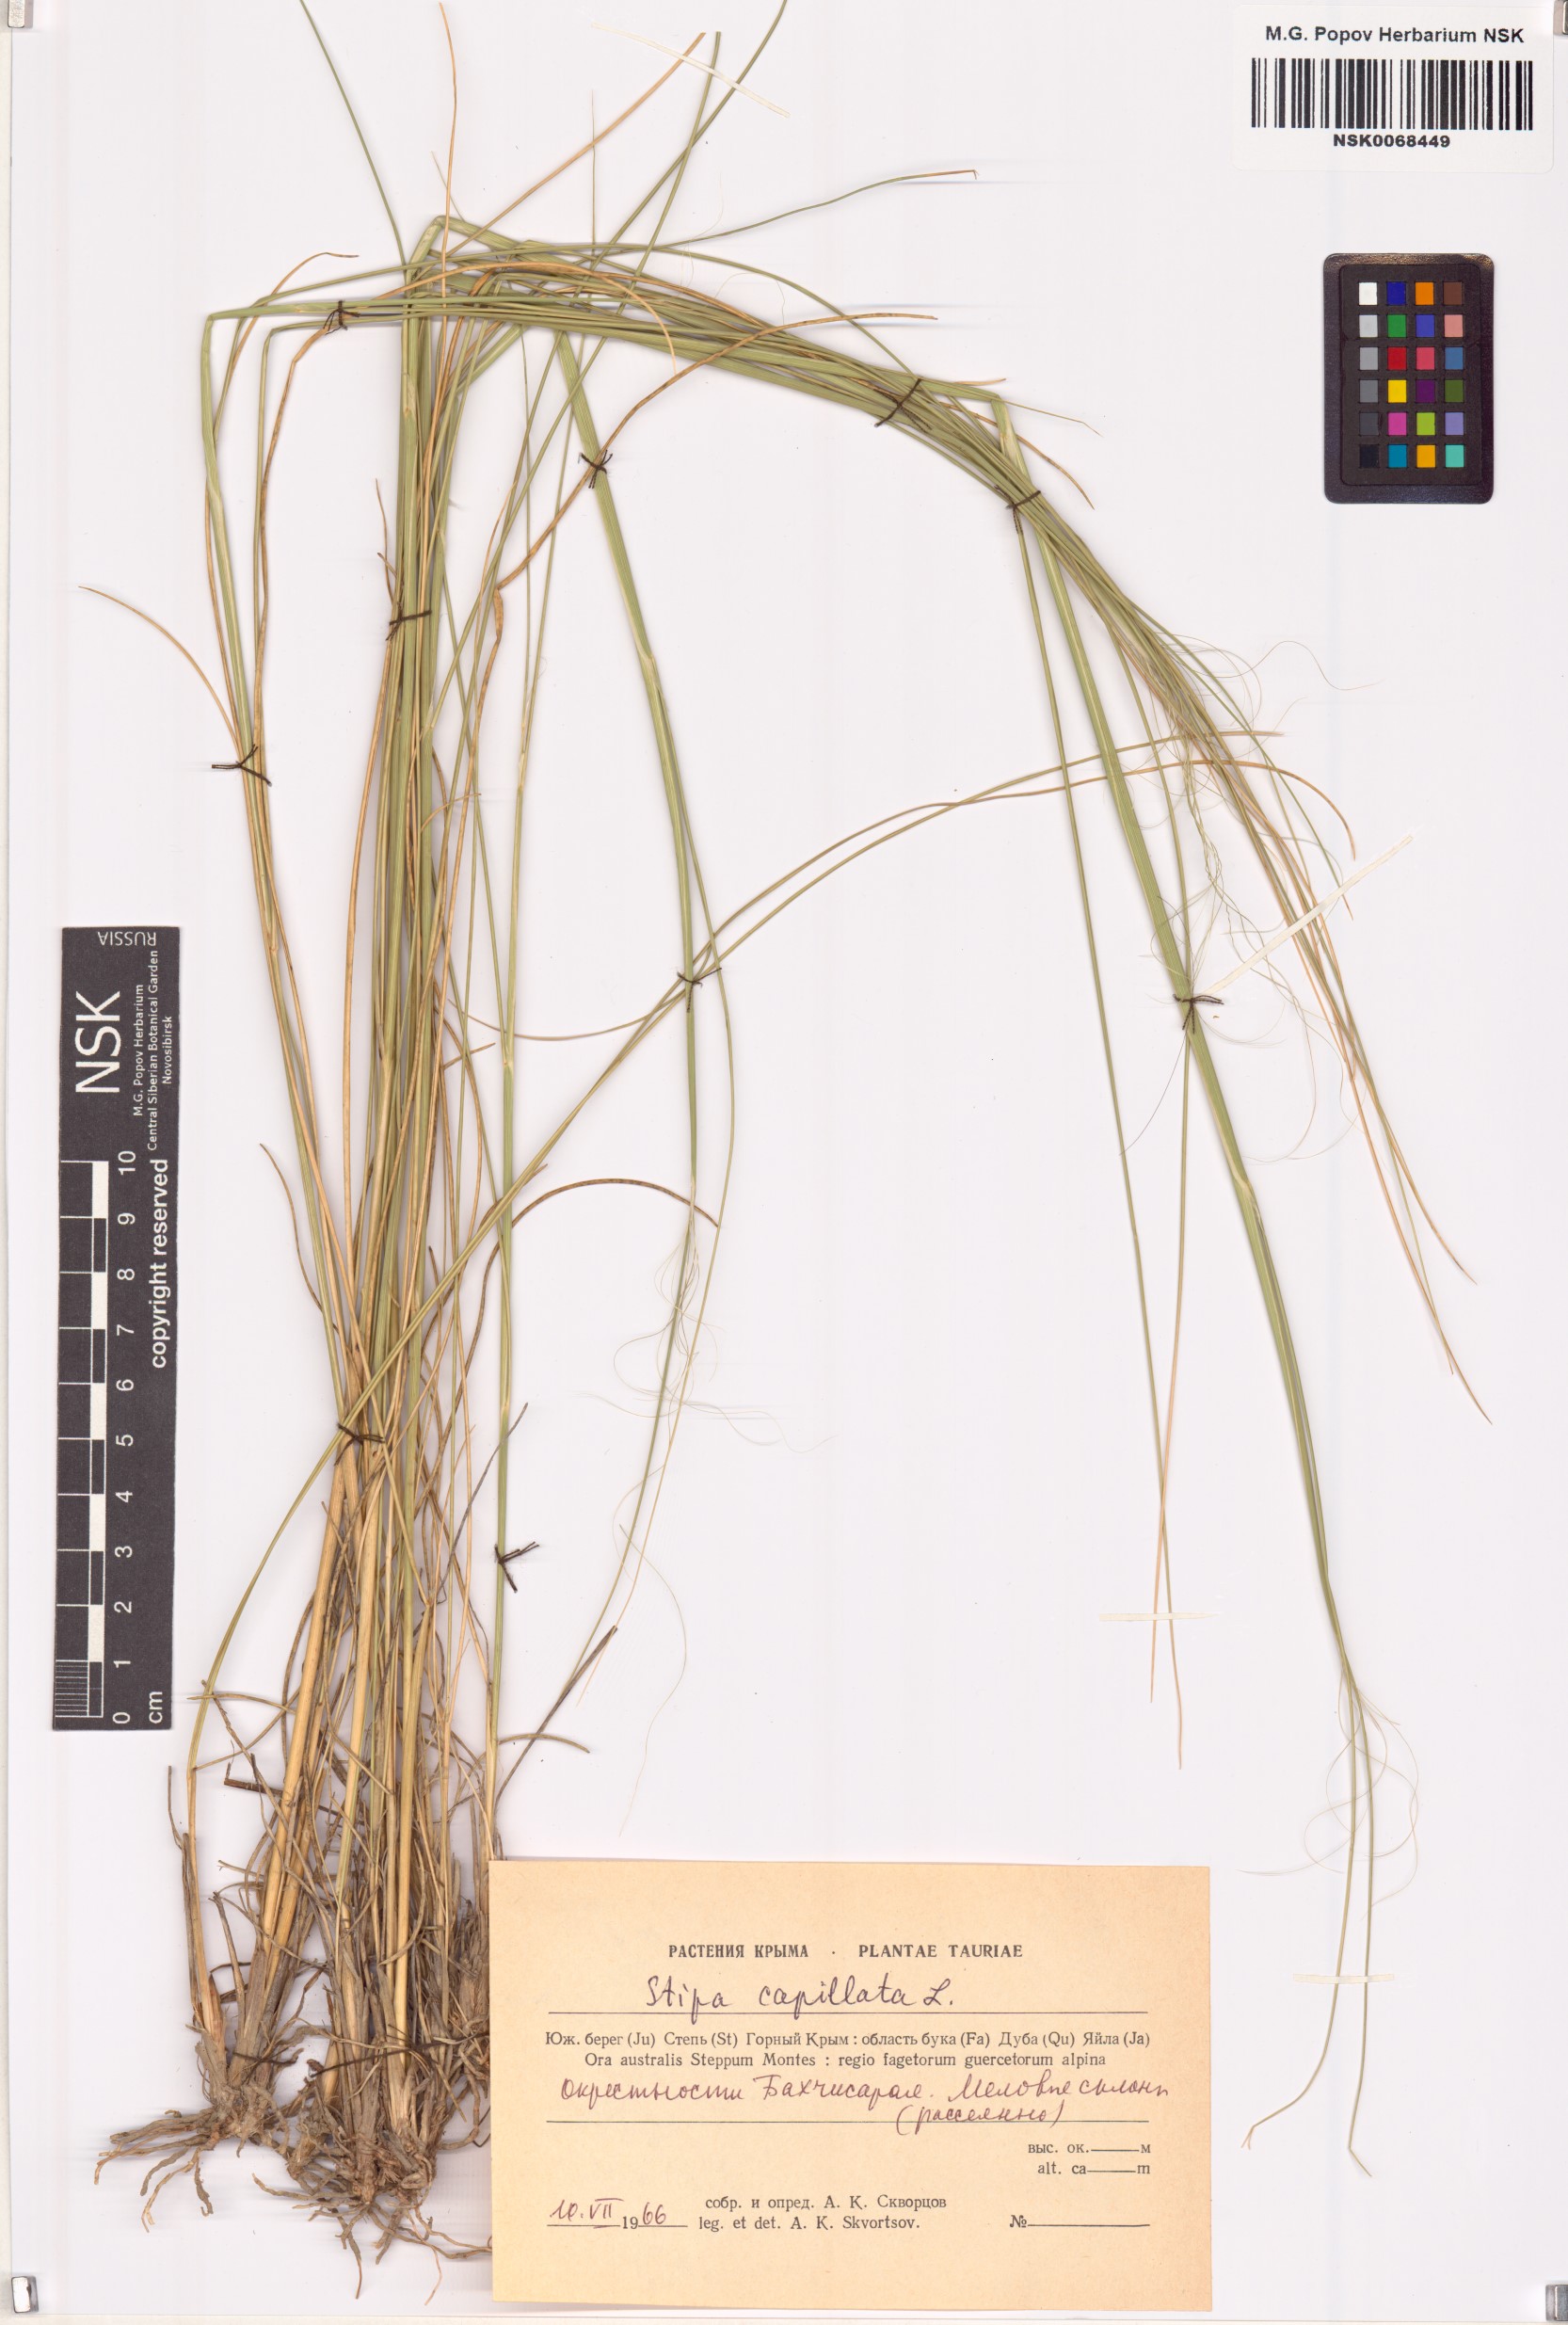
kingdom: Plantae
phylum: Tracheophyta
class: Liliopsida
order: Poales
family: Poaceae
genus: Stipa
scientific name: Stipa capillata
